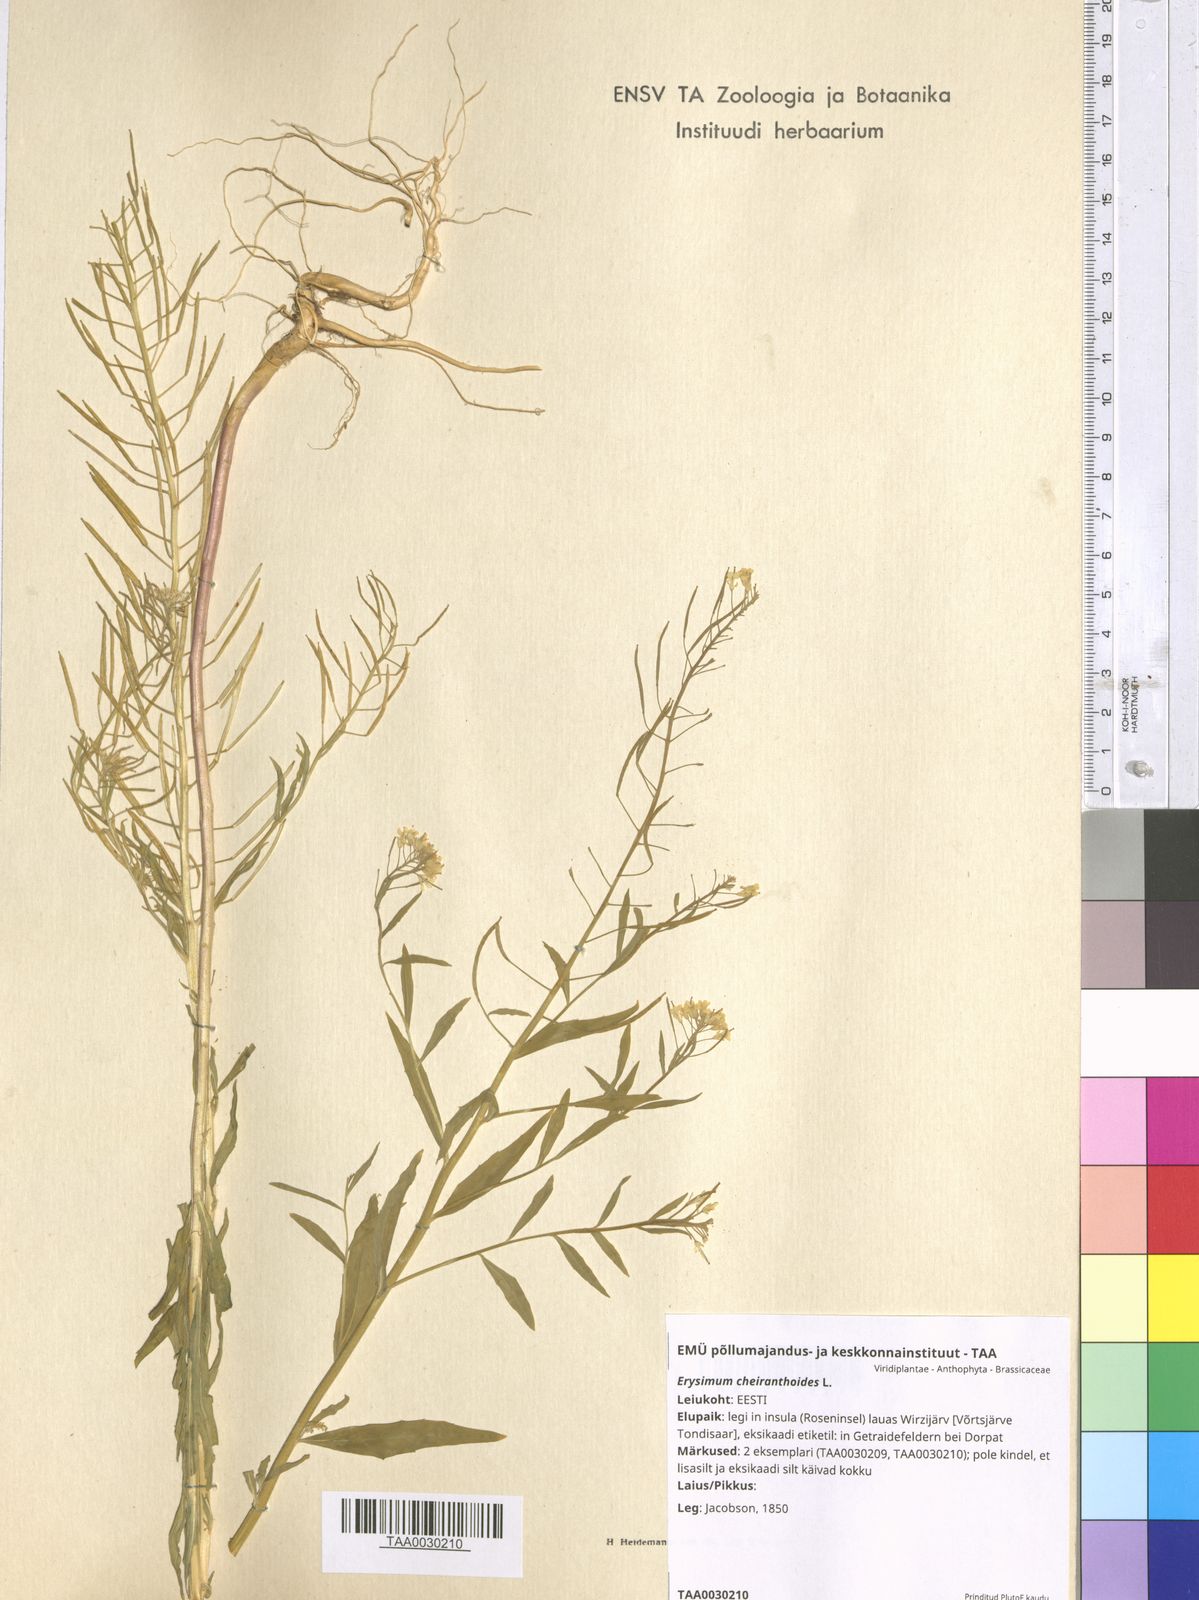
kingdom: Plantae
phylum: Tracheophyta
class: Magnoliopsida
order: Brassicales
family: Brassicaceae
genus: Erysimum
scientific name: Erysimum cheiranthoides
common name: Treacle mustard
